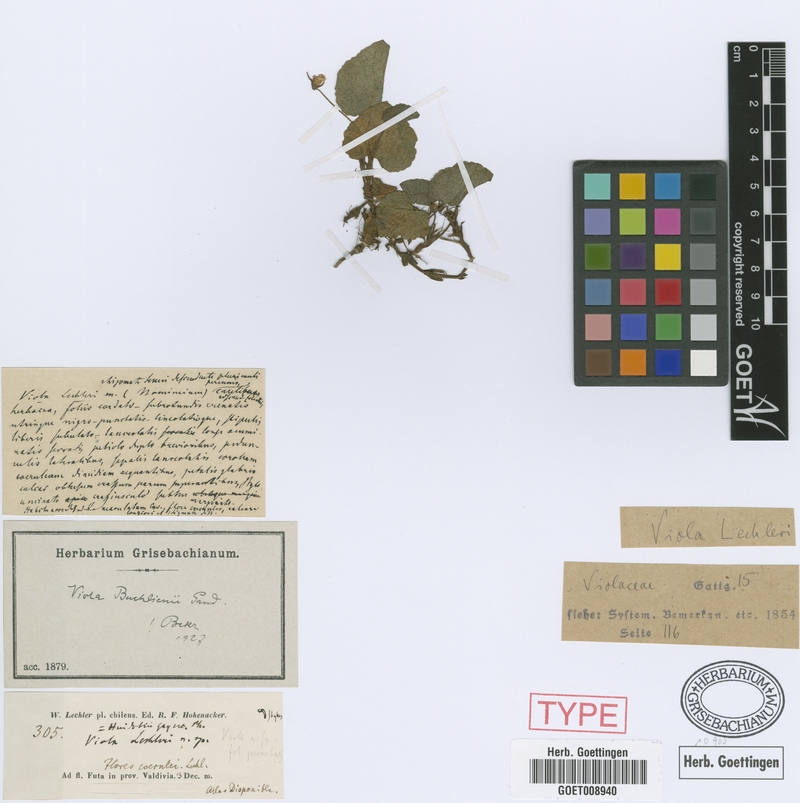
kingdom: Plantae
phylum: Tracheophyta
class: Magnoliopsida
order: Malpighiales
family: Violaceae
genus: Viola
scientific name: Viola huidobrii
